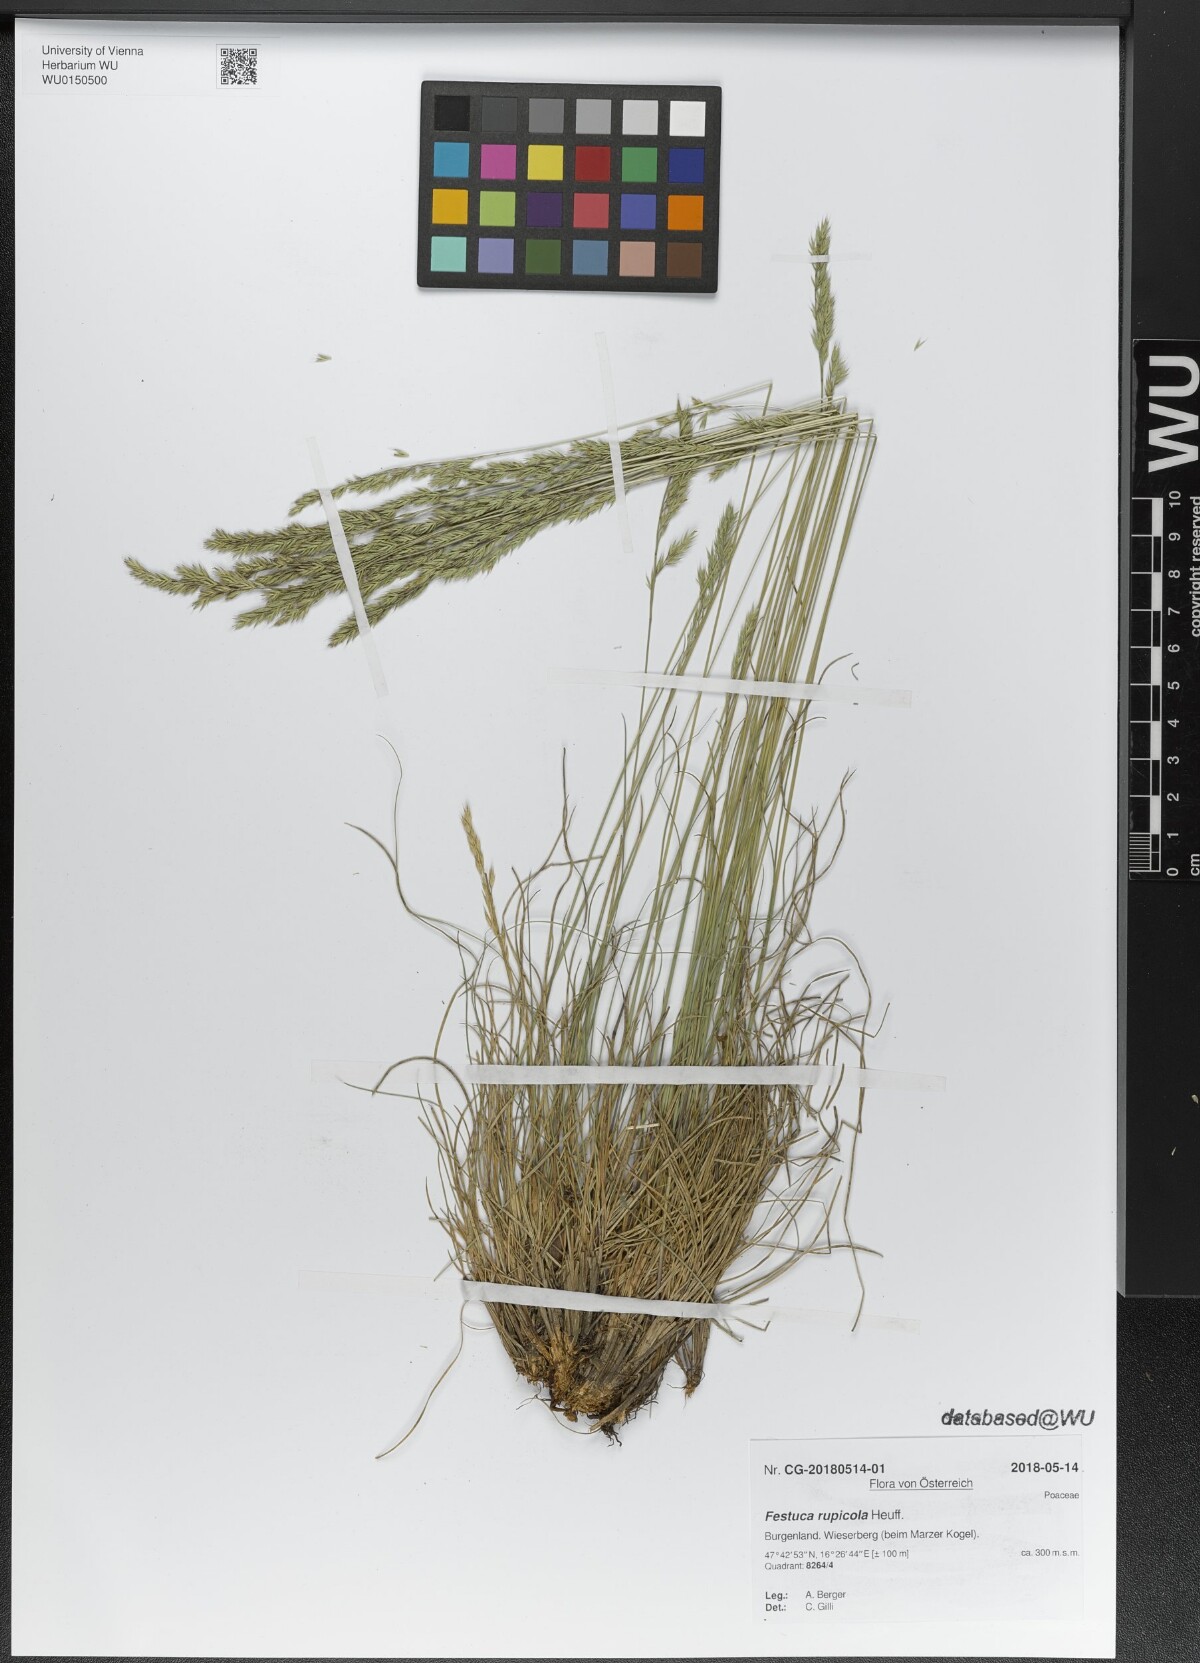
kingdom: Plantae
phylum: Tracheophyta
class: Liliopsida
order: Poales
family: Poaceae
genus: Festuca
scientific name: Festuca rupicola
